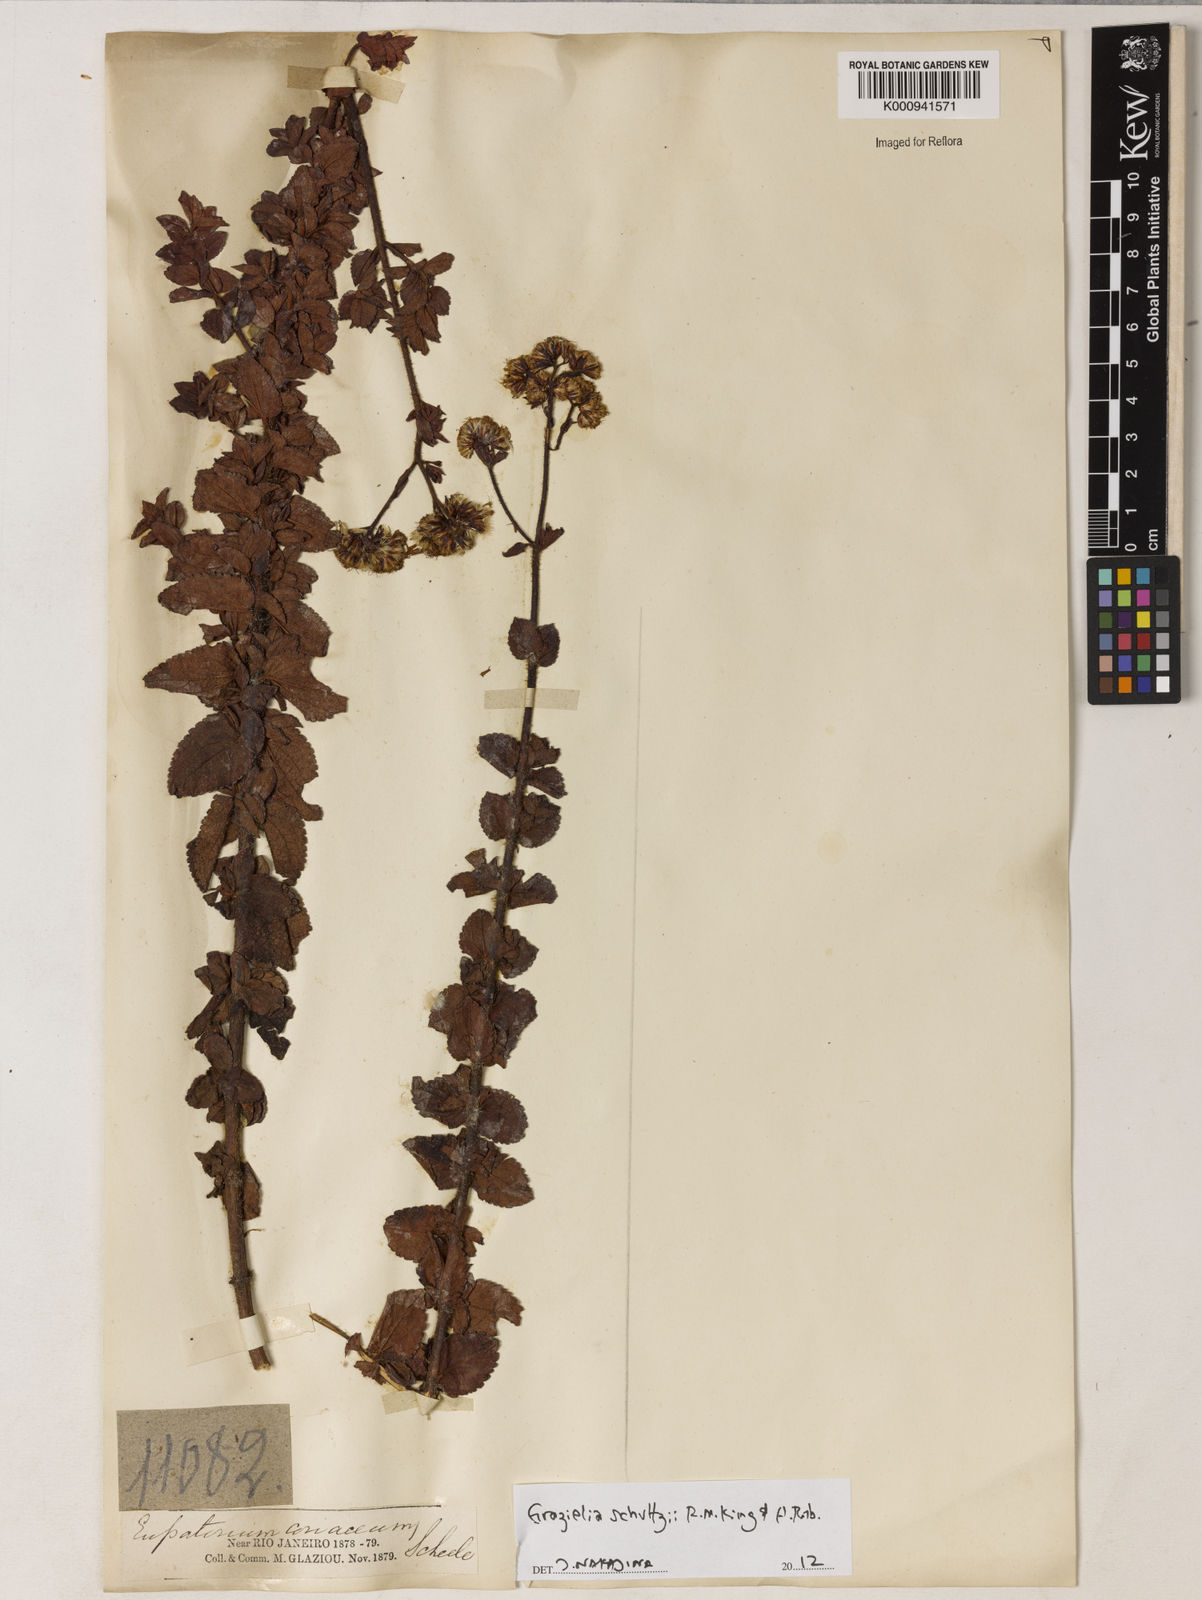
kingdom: Plantae
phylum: Tracheophyta
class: Magnoliopsida
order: Asterales
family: Asteraceae
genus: Grazielia
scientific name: Grazielia
